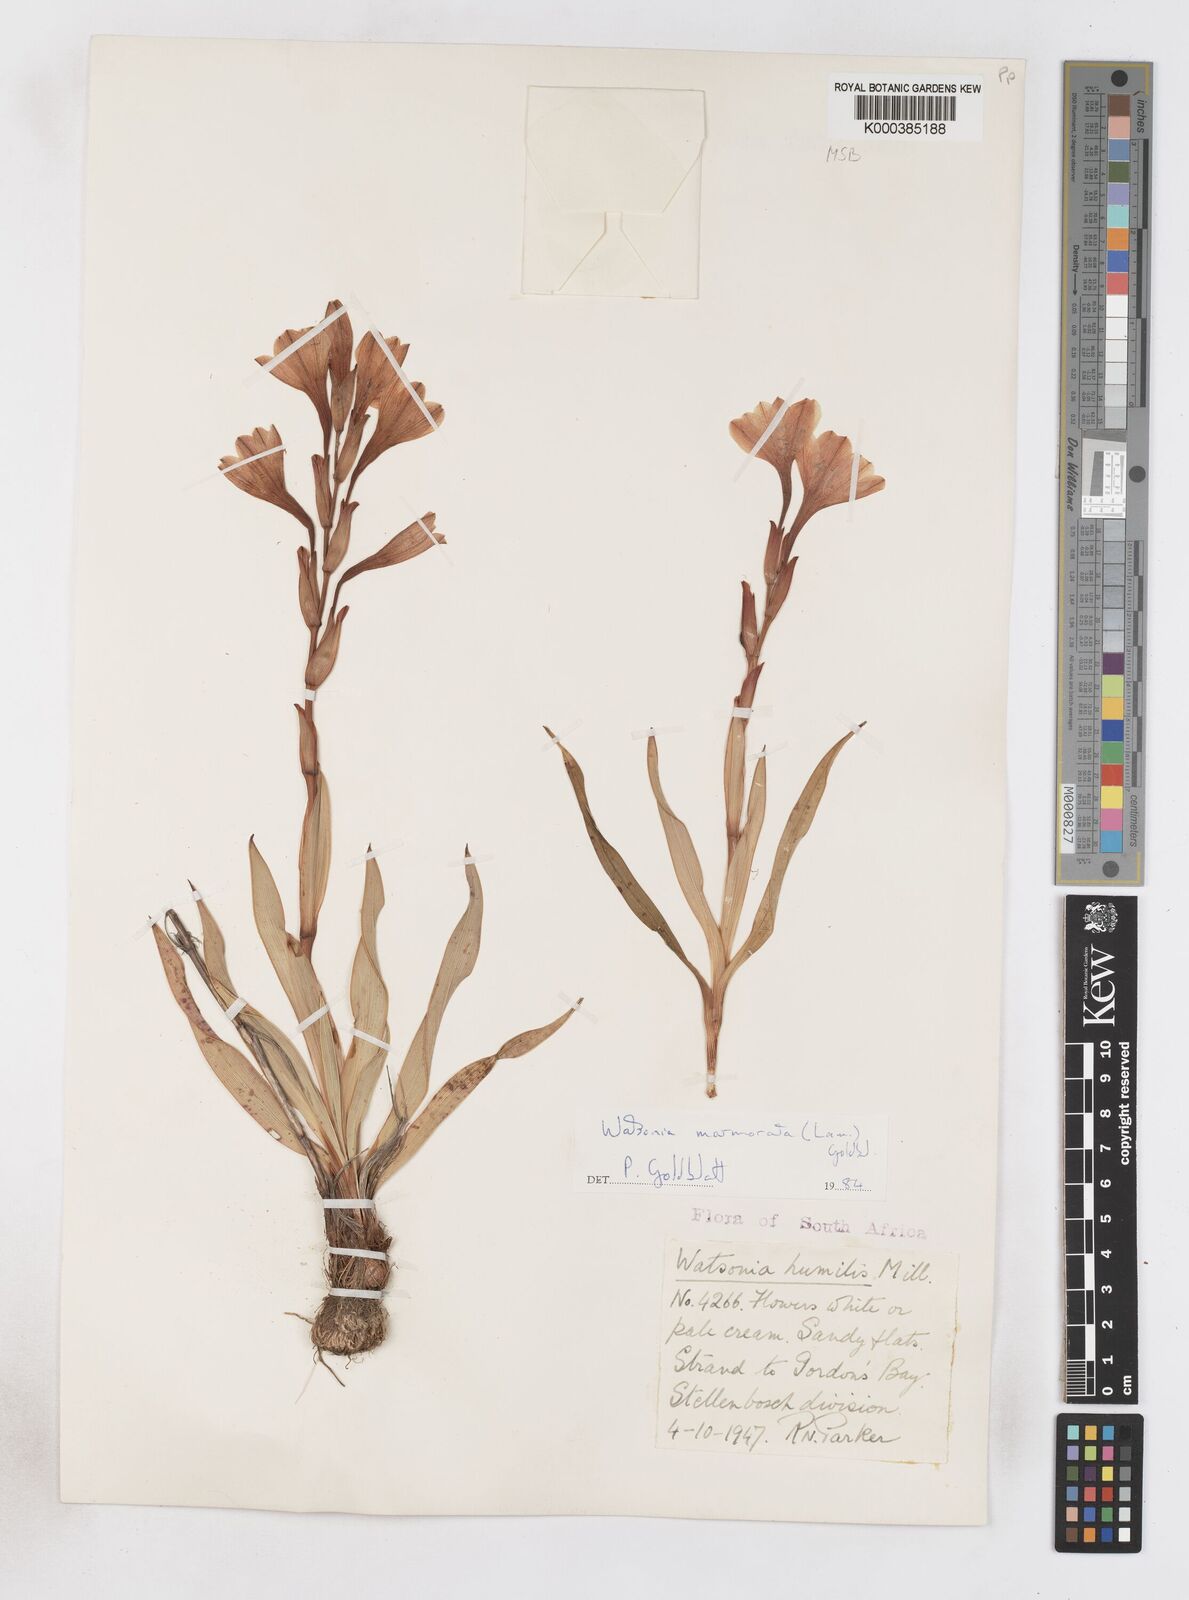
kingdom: Plantae
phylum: Tracheophyta
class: Liliopsida
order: Asparagales
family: Iridaceae
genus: Watsonia
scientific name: Watsonia humilis
